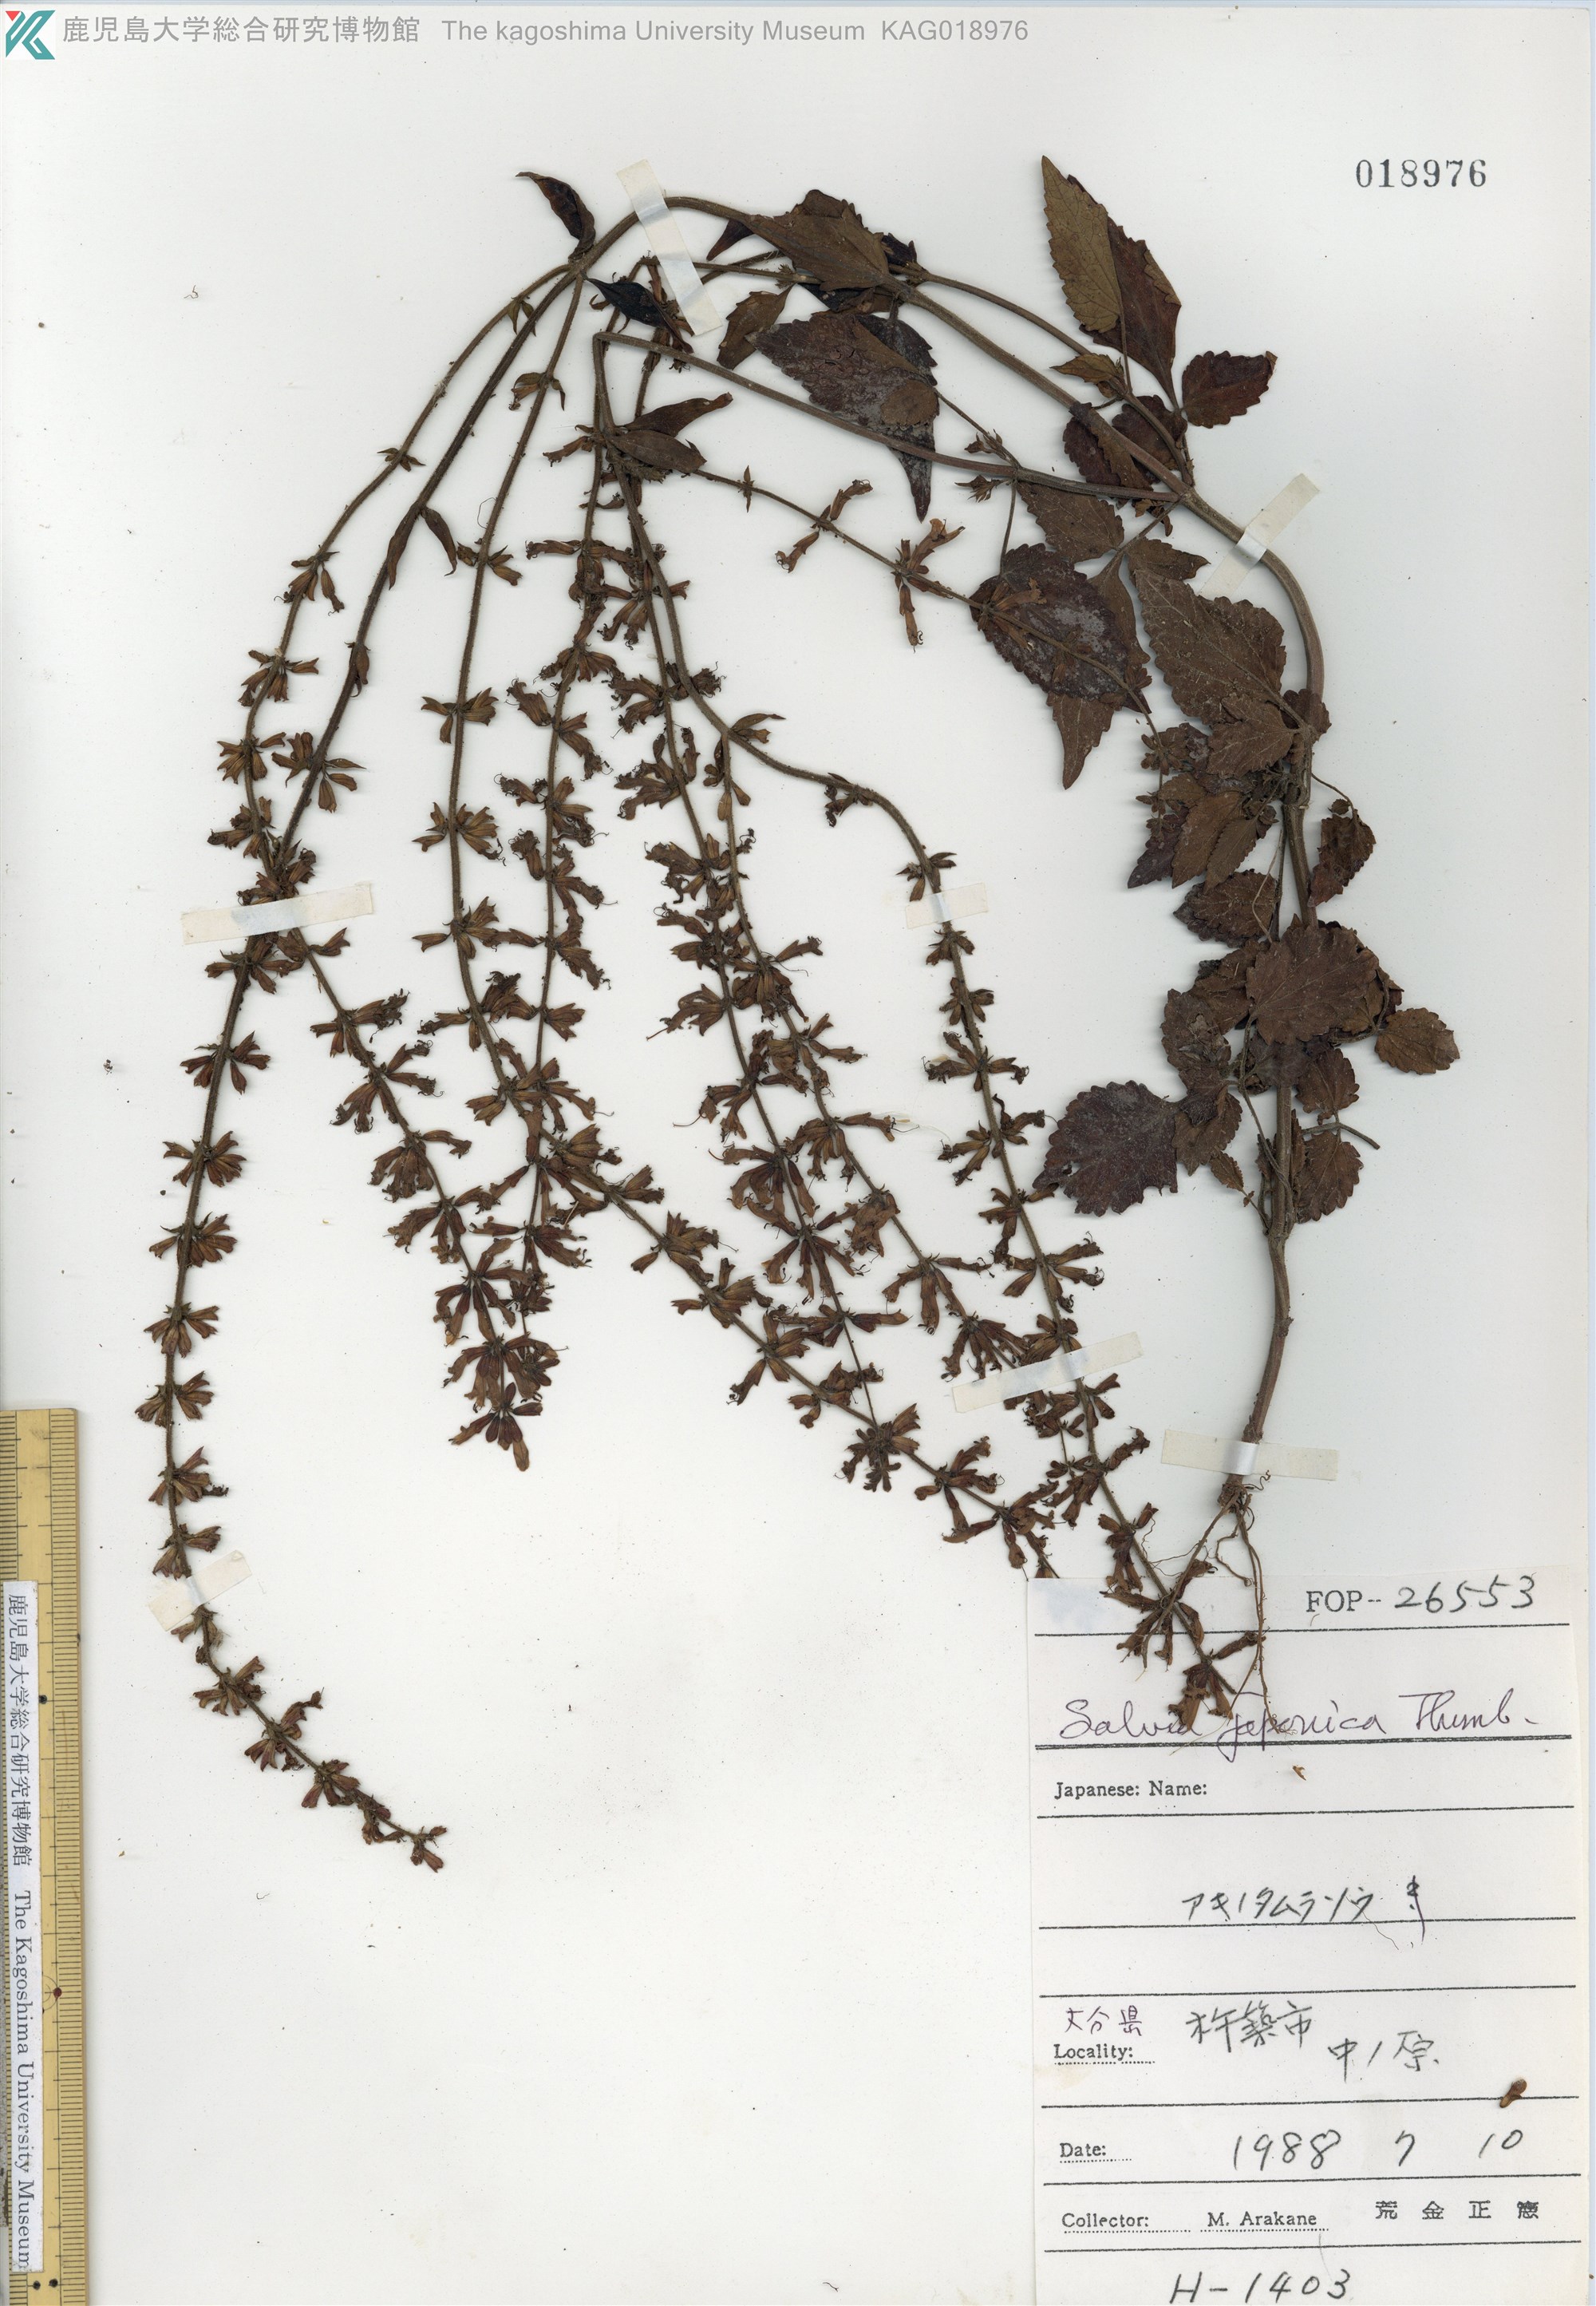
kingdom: Plantae
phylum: Tracheophyta
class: Magnoliopsida
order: Lamiales
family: Lamiaceae
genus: Salvia
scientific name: Salvia japonica
